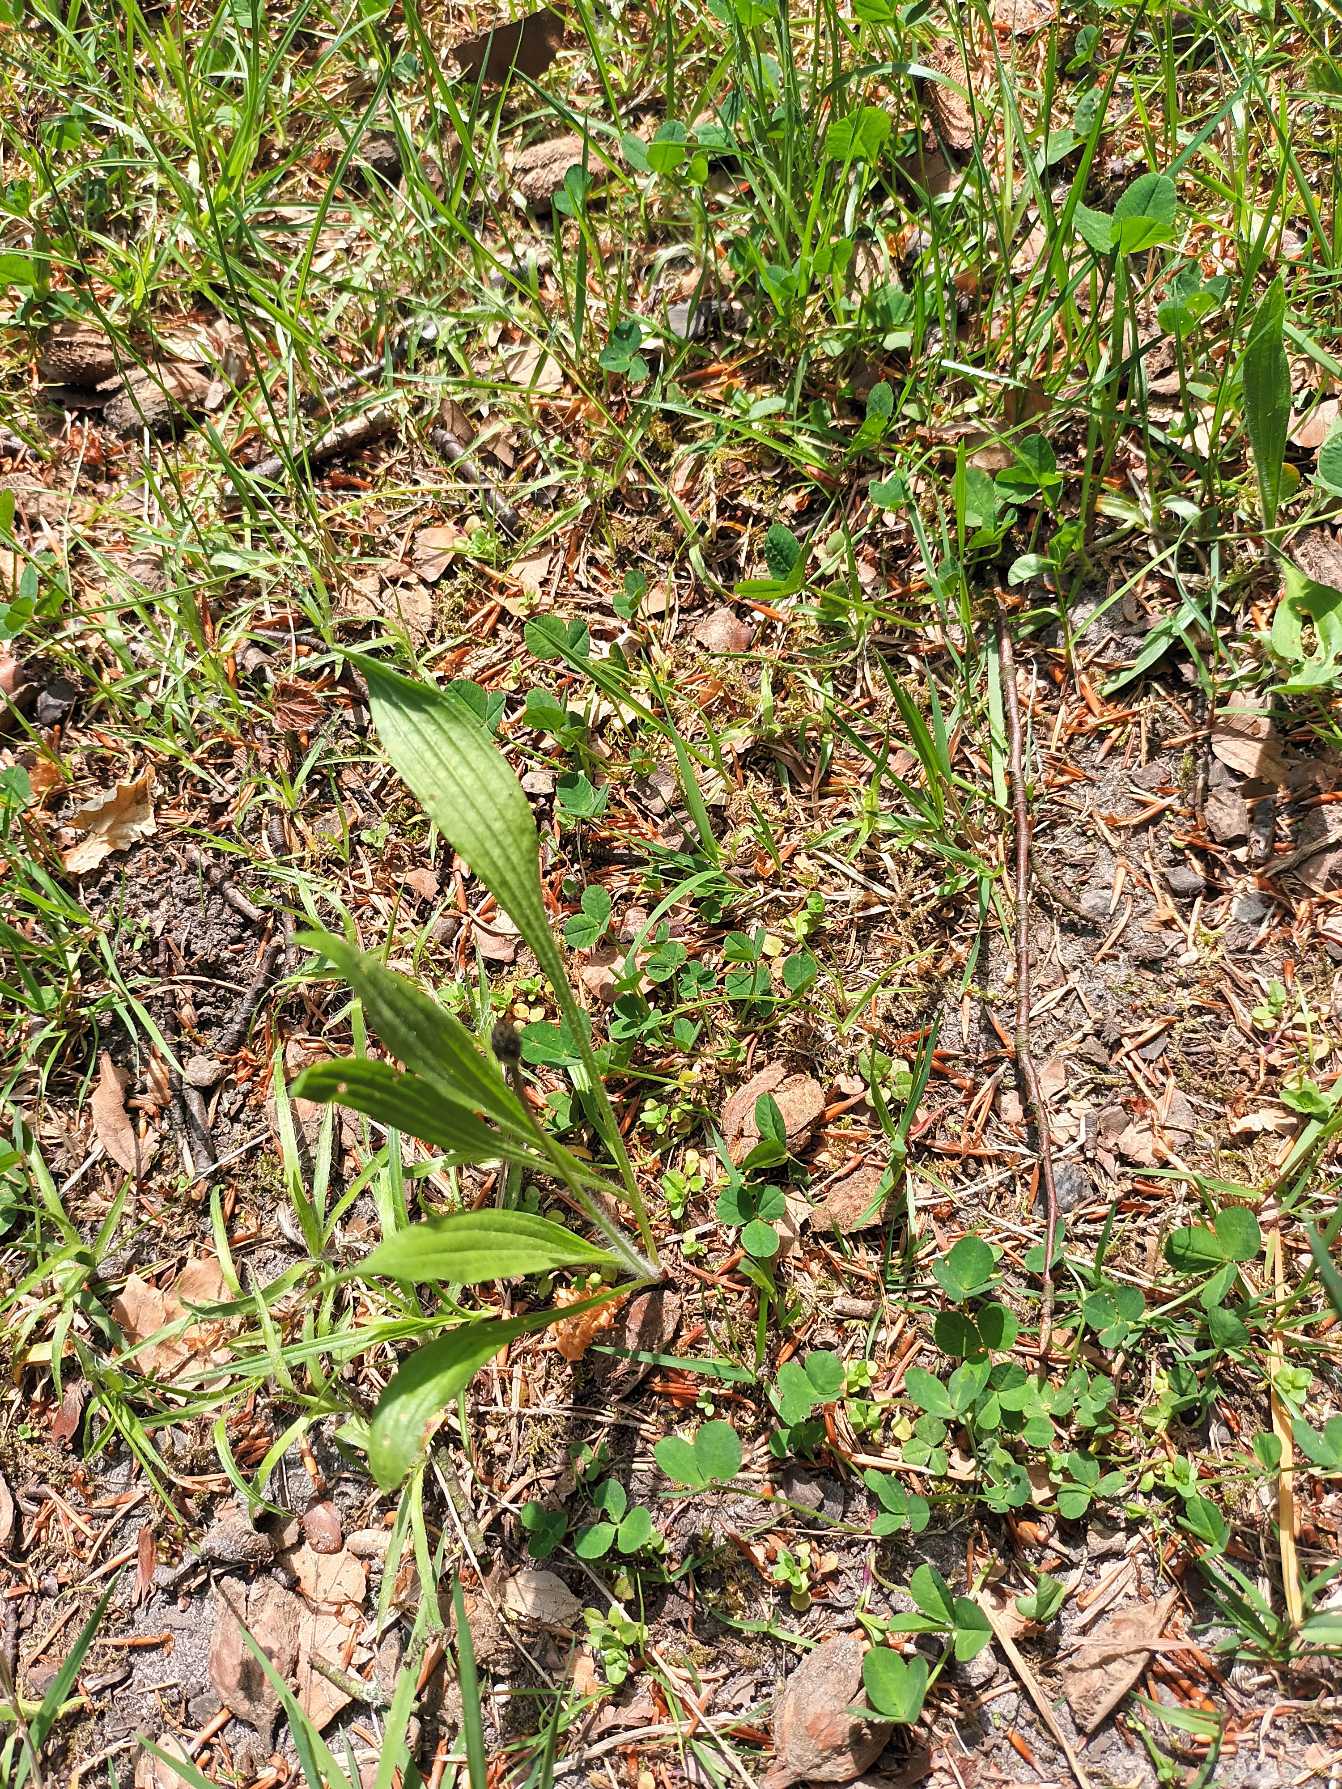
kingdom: Plantae
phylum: Tracheophyta
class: Magnoliopsida
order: Lamiales
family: Plantaginaceae
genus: Plantago
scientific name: Plantago lanceolata
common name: Lancet-vejbred
